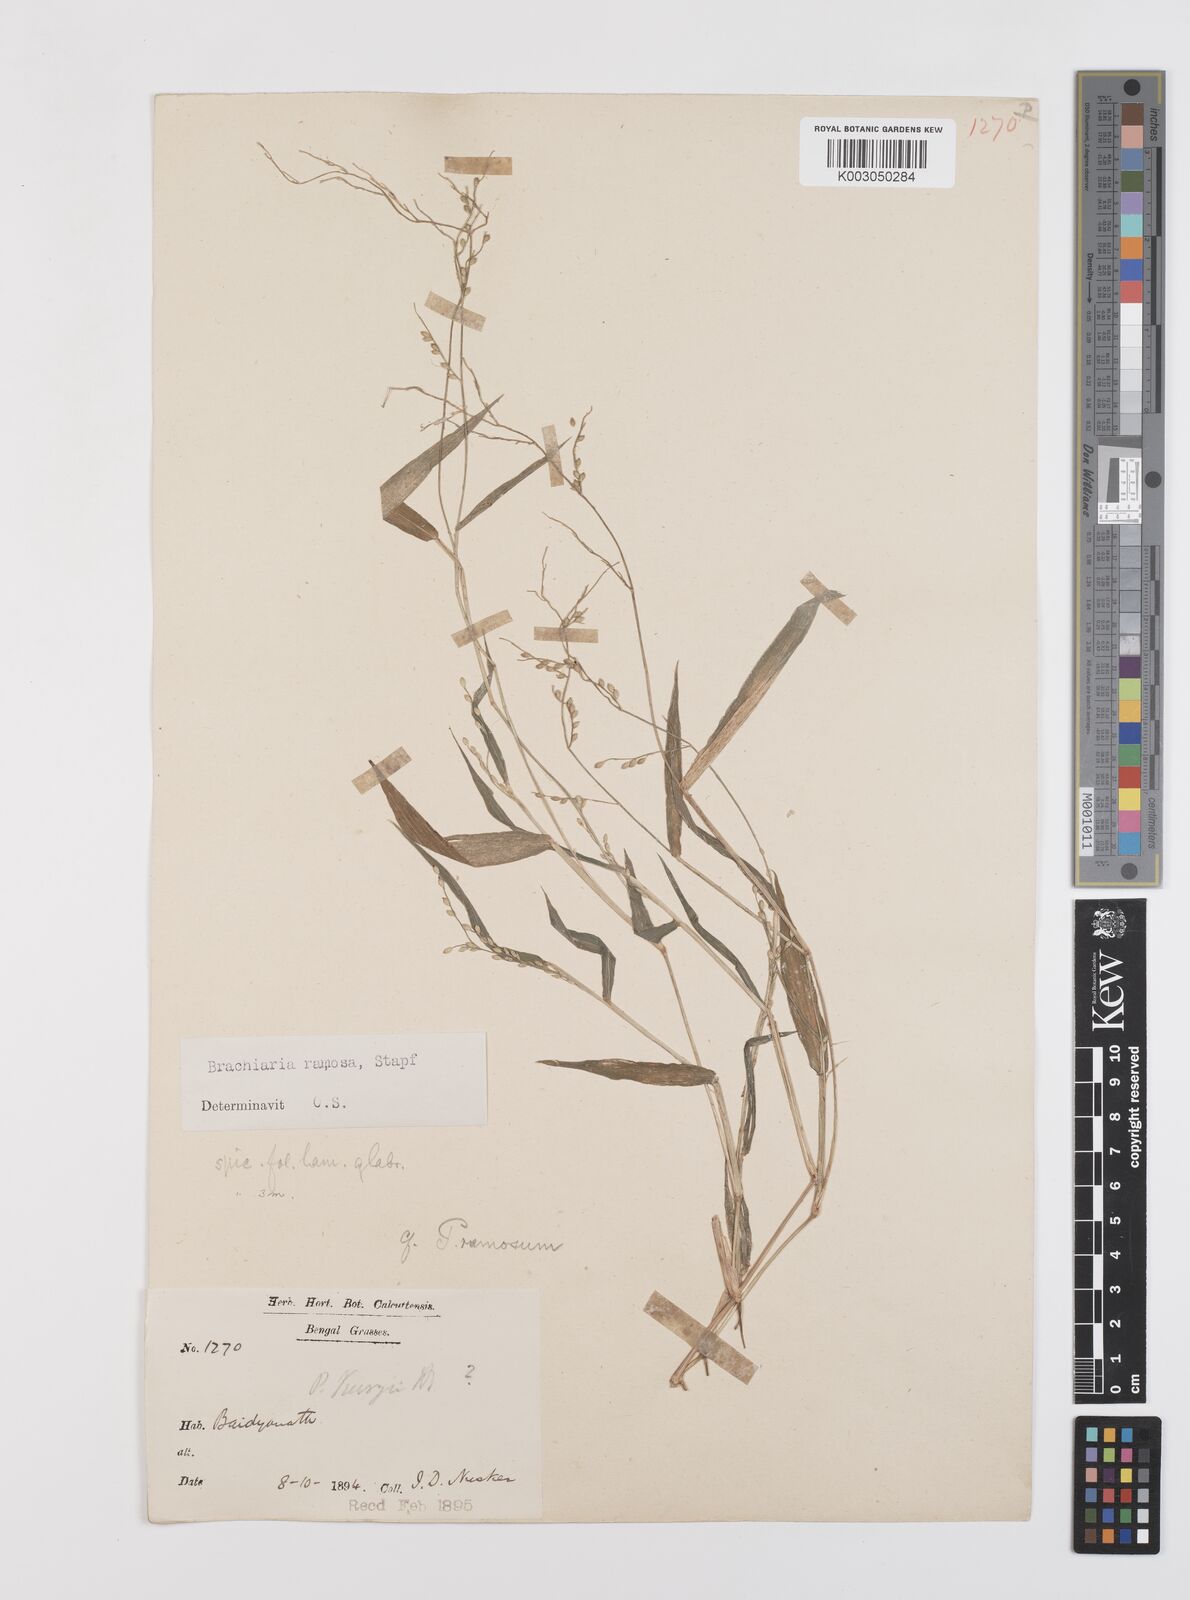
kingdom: Plantae
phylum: Tracheophyta
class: Liliopsida
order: Poales
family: Poaceae
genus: Urochloa
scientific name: Urochloa ramosa
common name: Browntop millet
